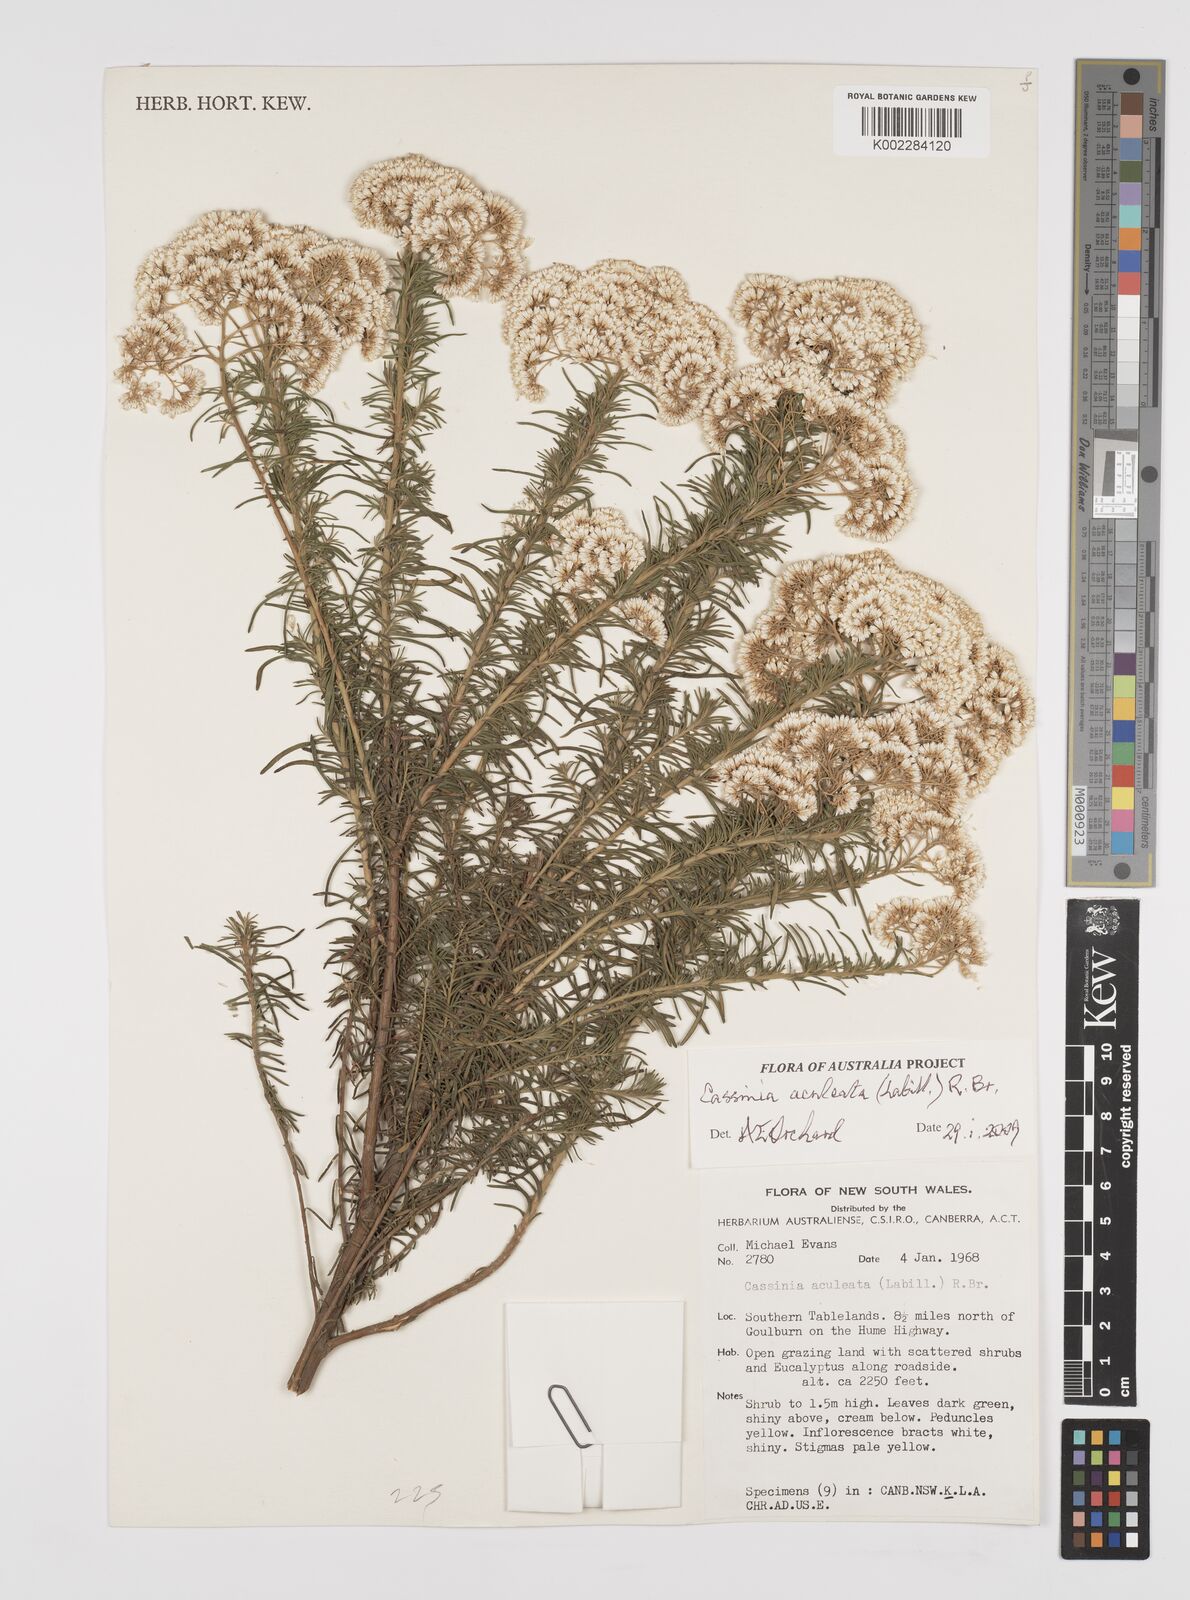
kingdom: Plantae
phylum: Tracheophyta
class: Magnoliopsida
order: Asterales
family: Asteraceae
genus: Cassinia
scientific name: Cassinia aculeata
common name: Australian tauhinu
